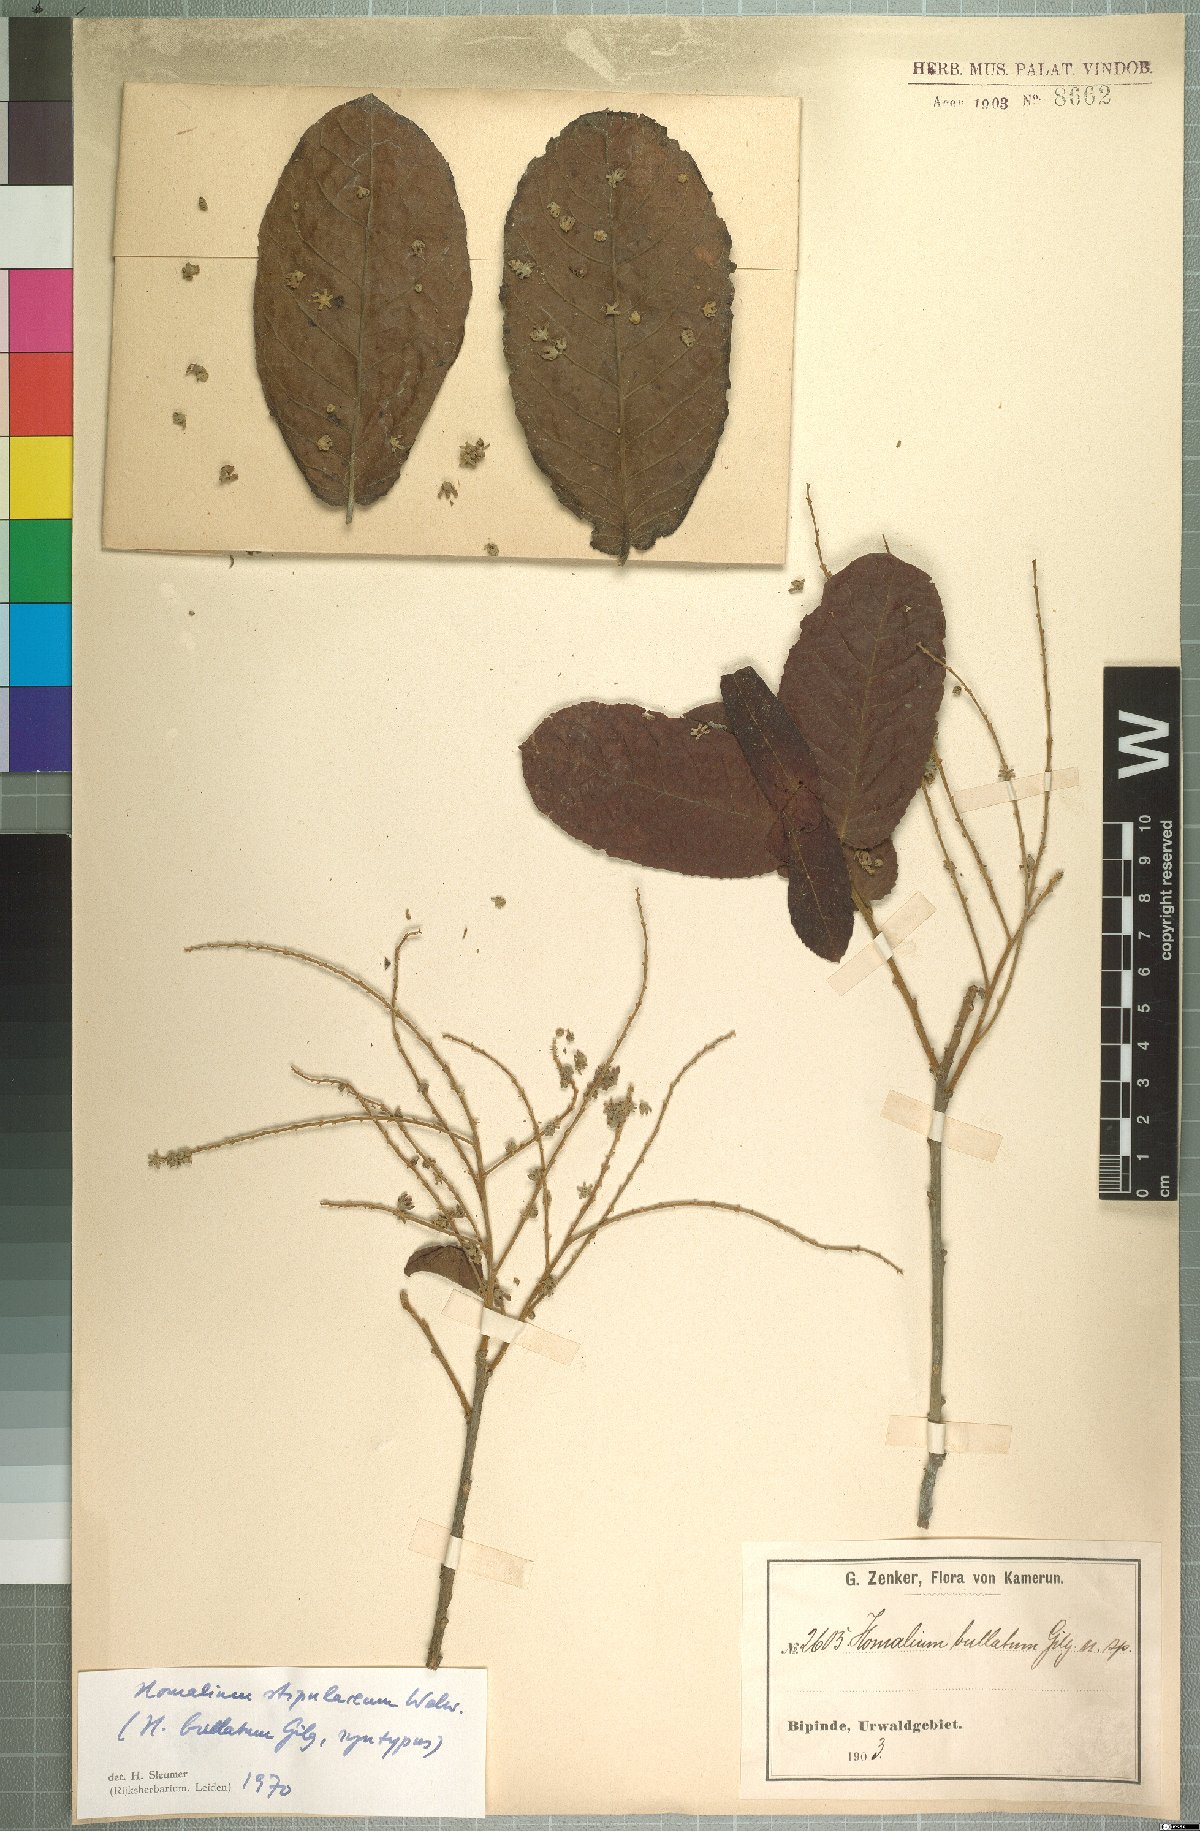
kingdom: Plantae
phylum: Tracheophyta
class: Magnoliopsida
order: Malpighiales
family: Salicaceae
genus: Homalium
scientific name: Homalium stipulaceum
